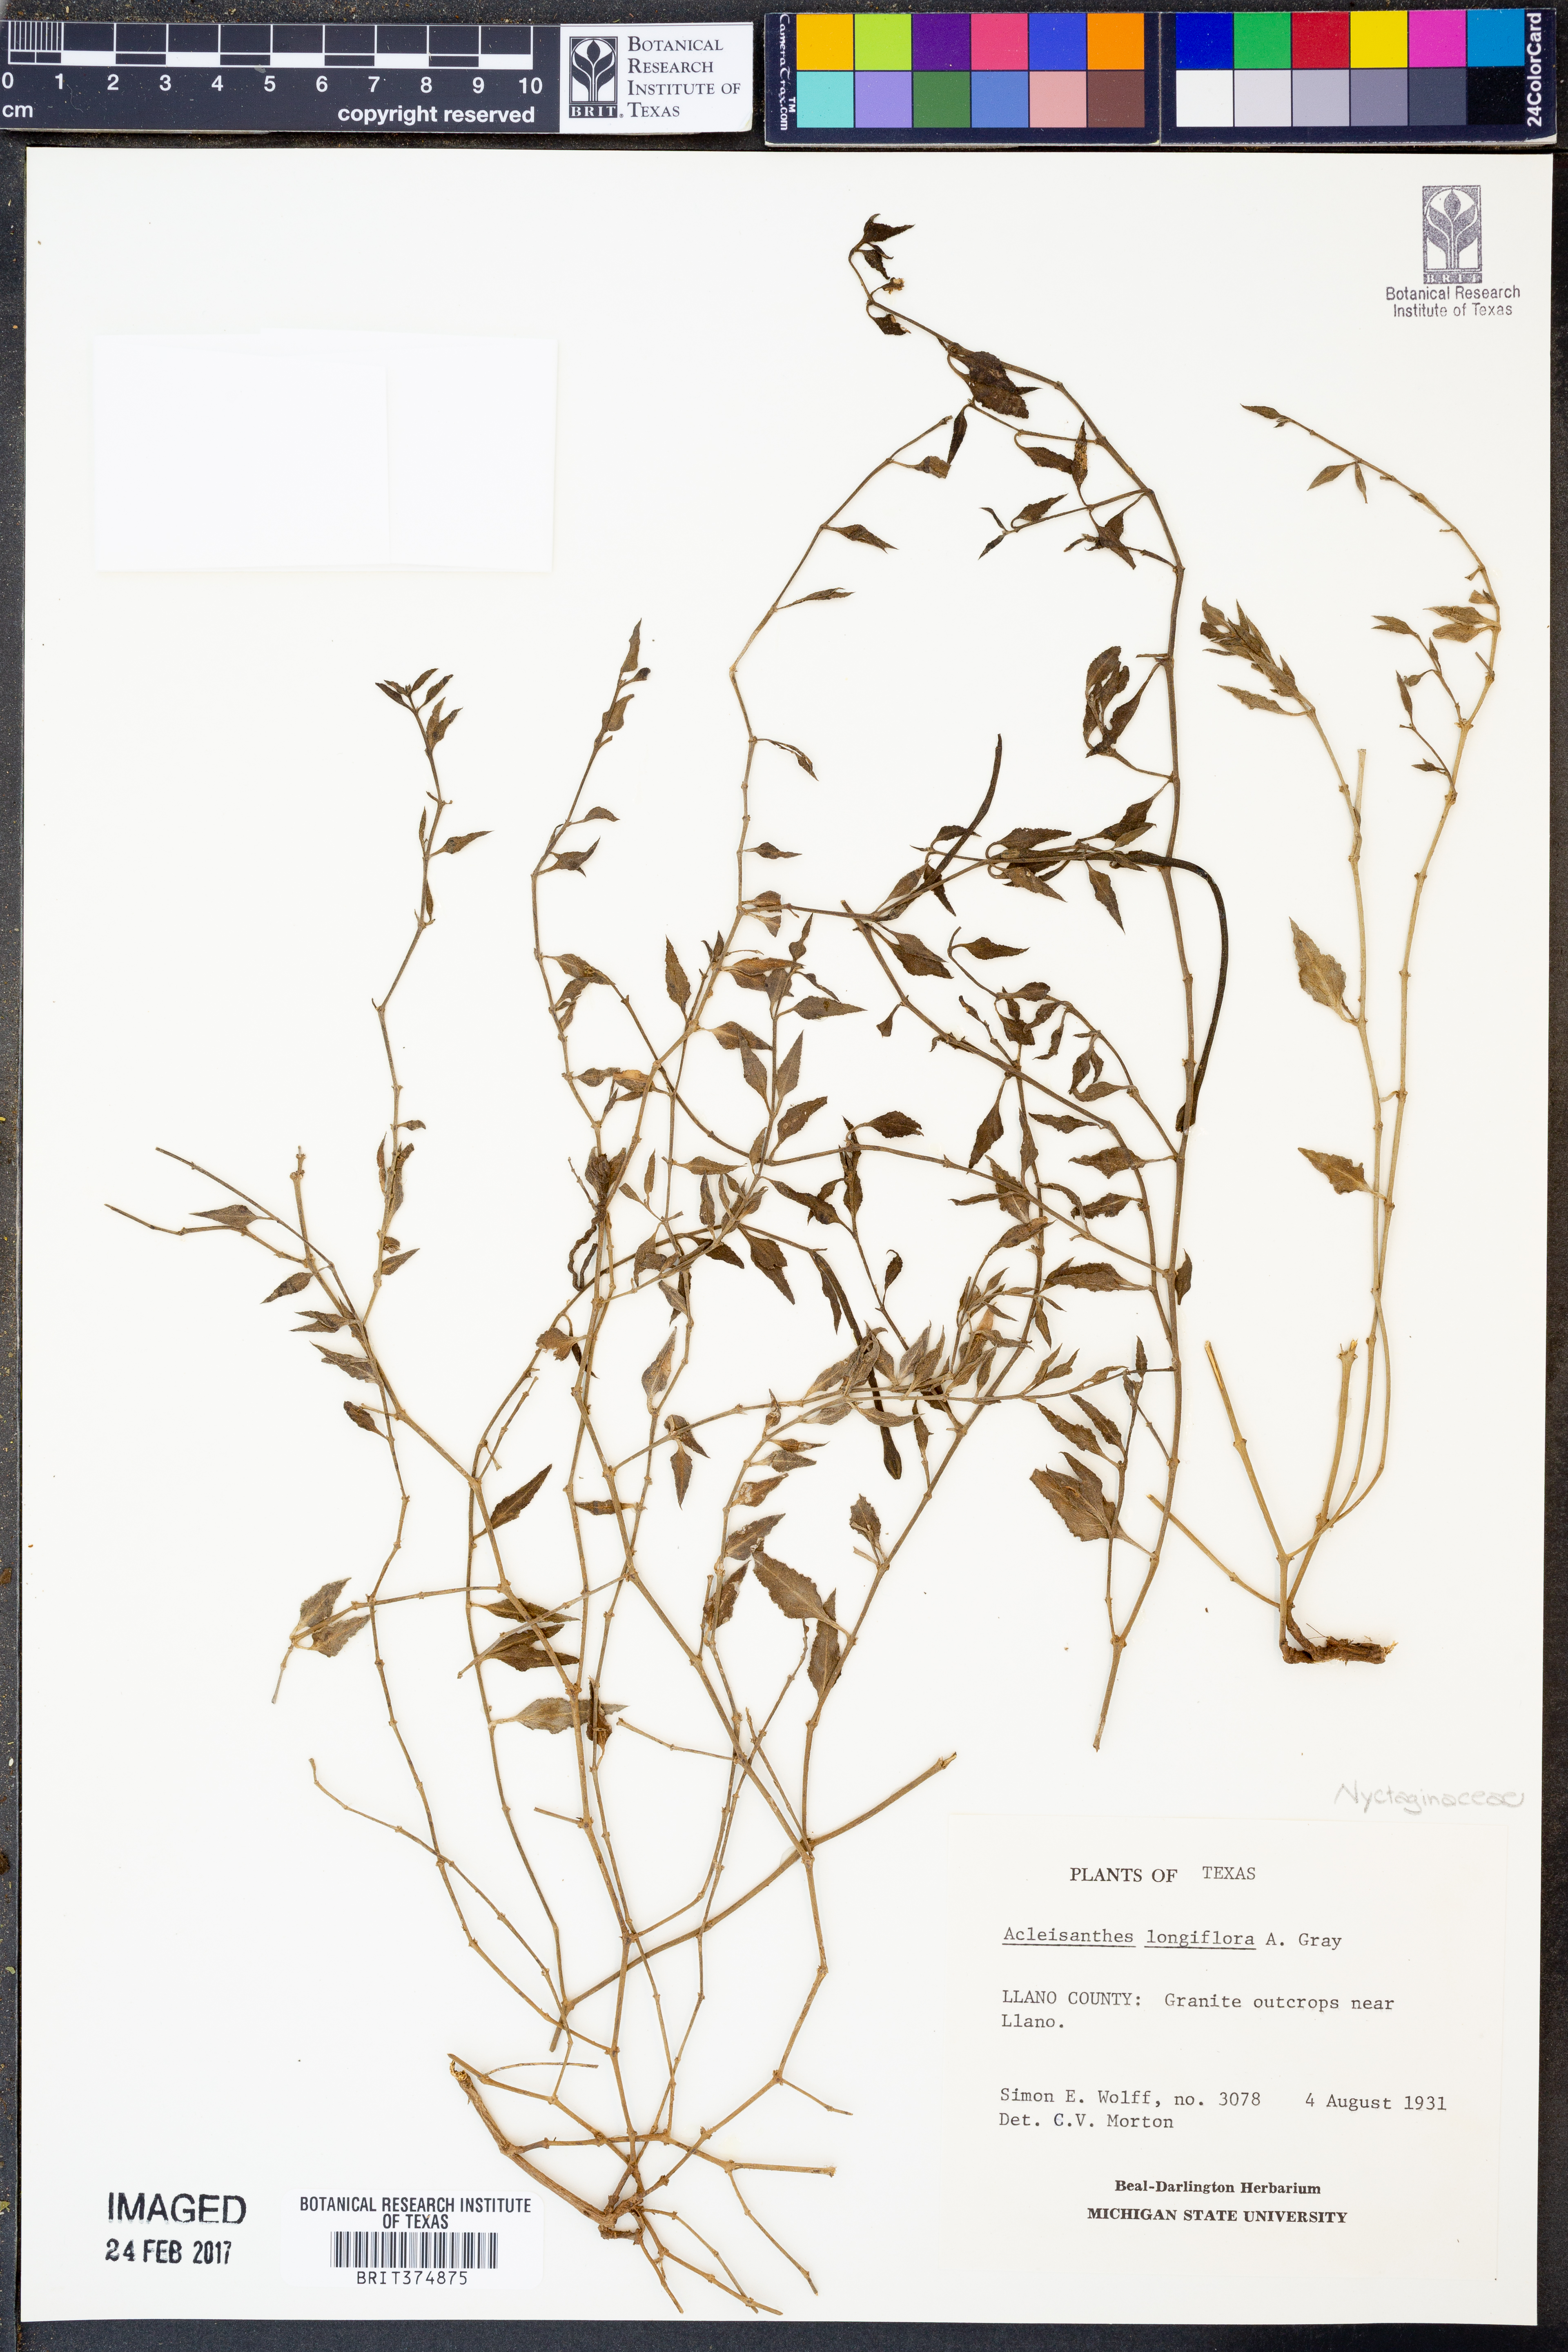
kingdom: Plantae
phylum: Tracheophyta
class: Magnoliopsida
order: Caryophyllales
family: Nyctaginaceae
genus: Acleisanthes
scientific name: Acleisanthes longiflora
